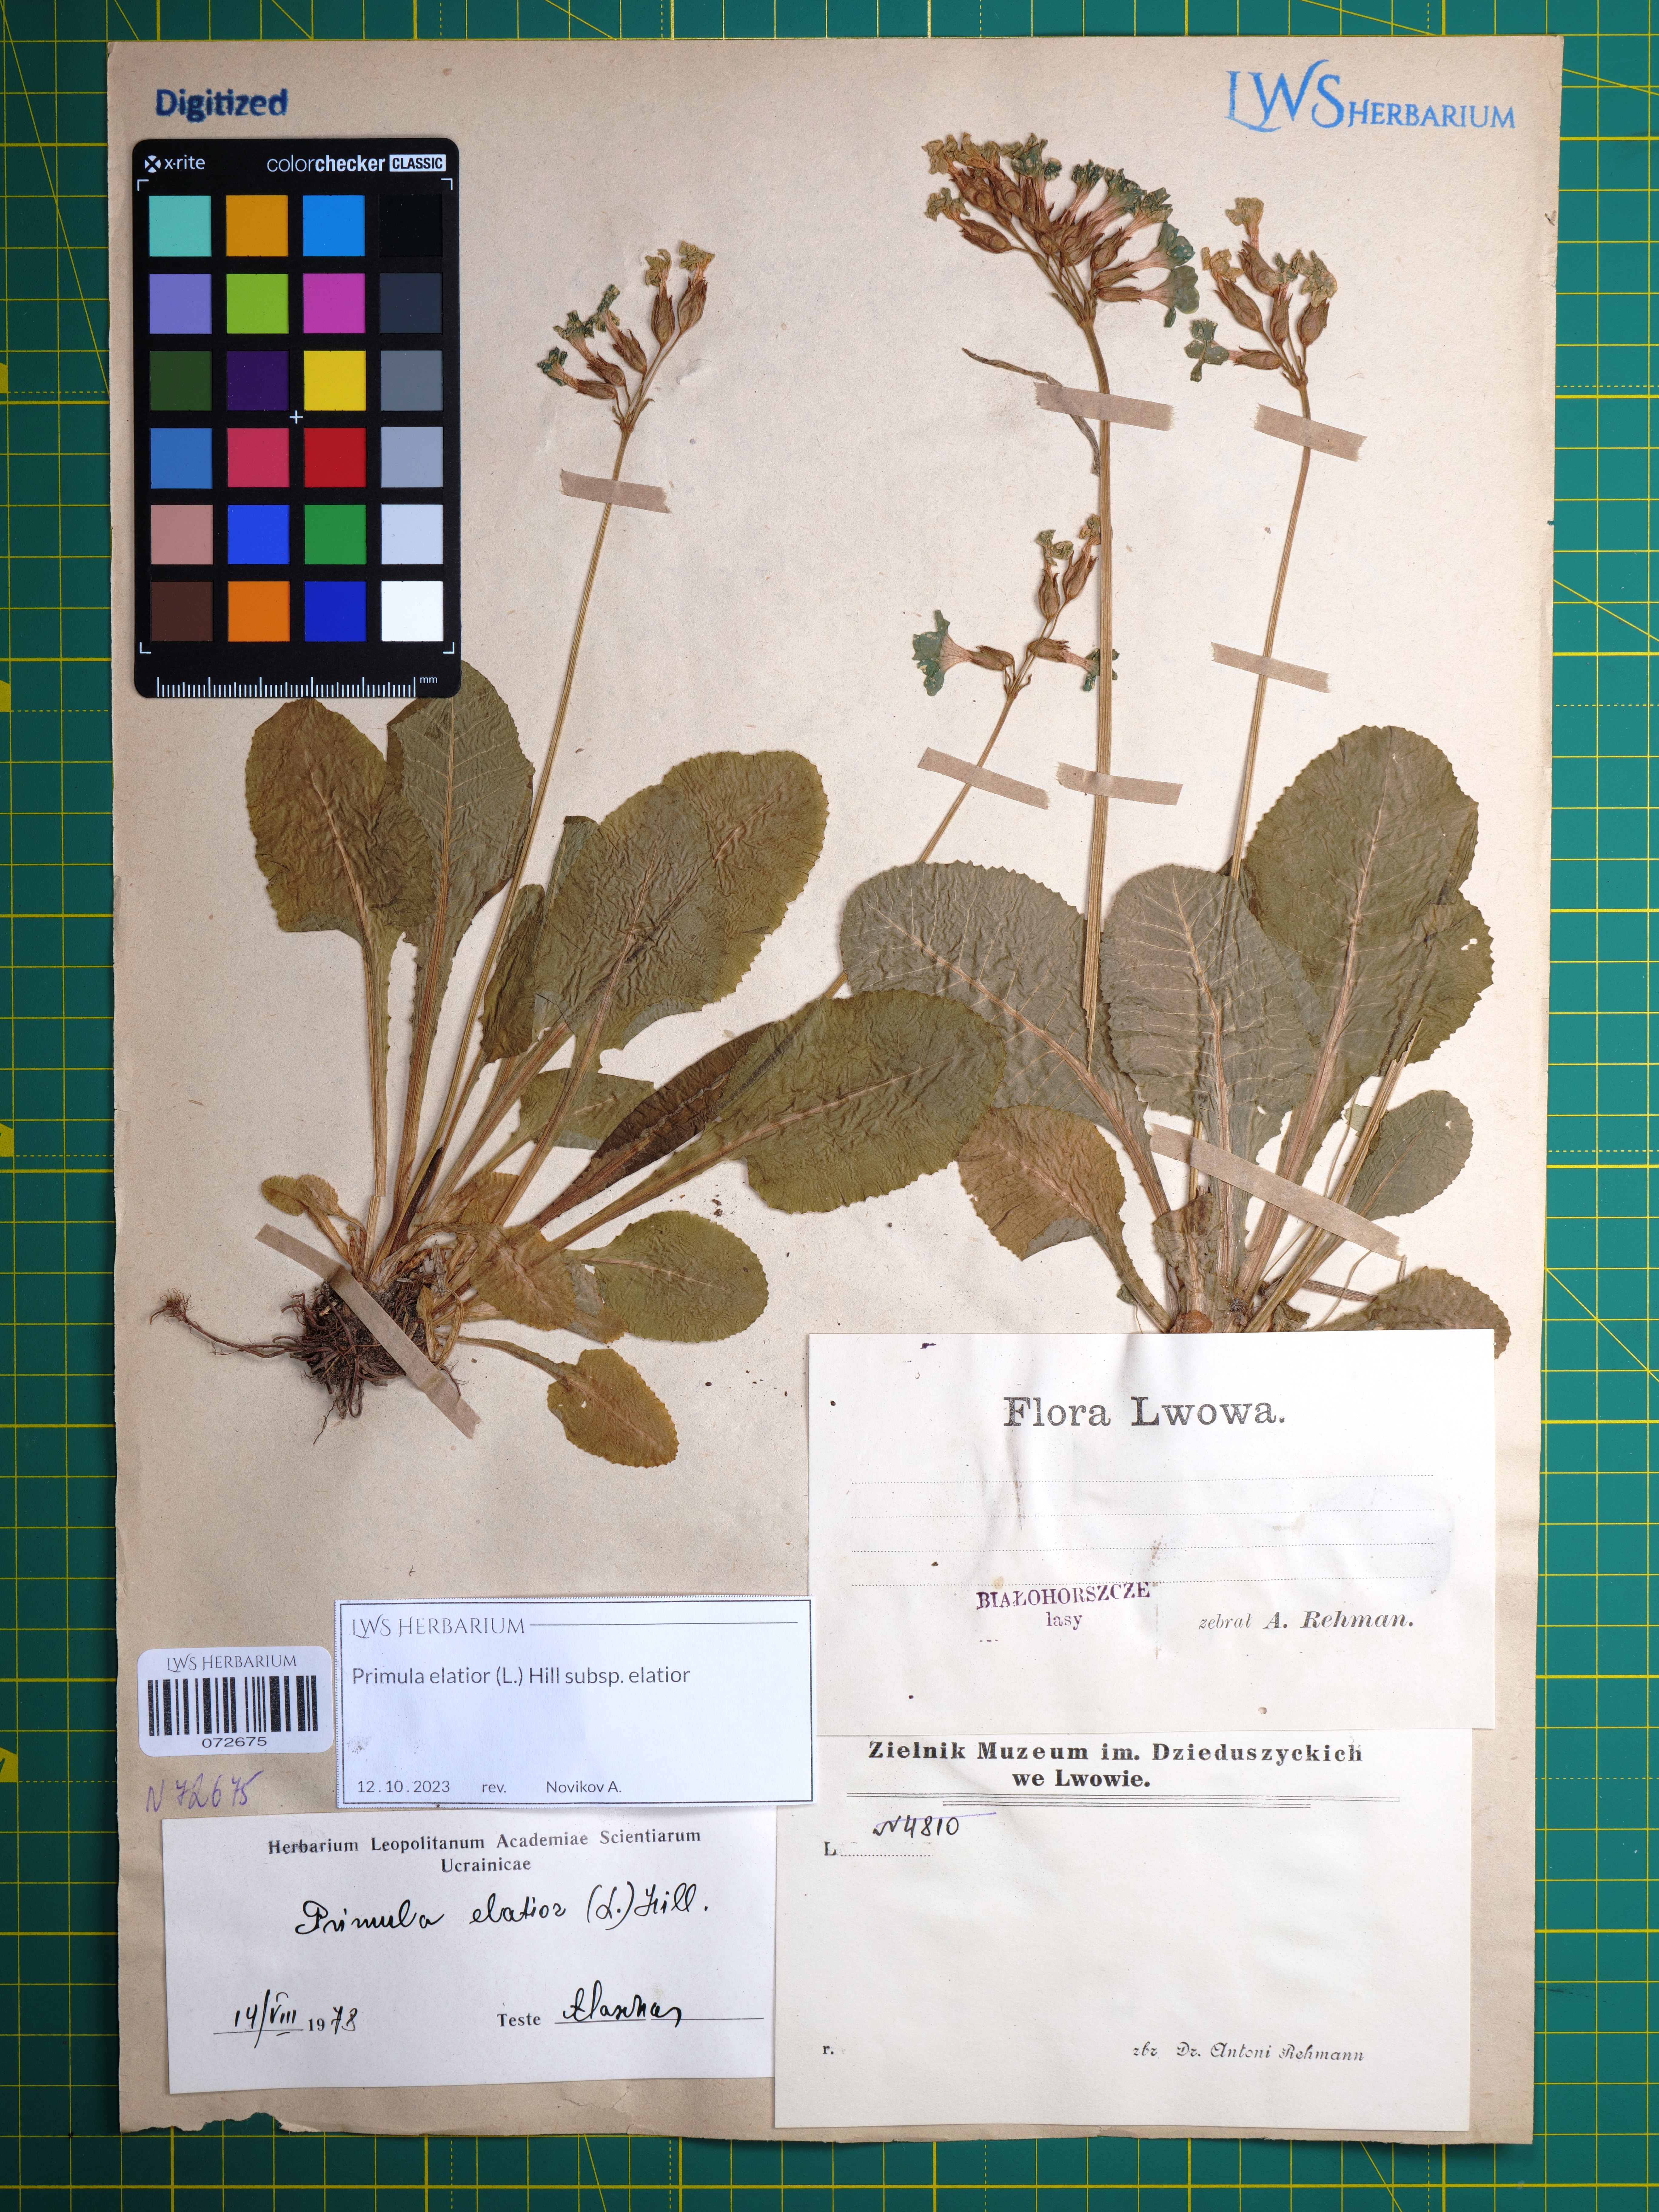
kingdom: Plantae
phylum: Tracheophyta
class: Magnoliopsida
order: Ericales
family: Primulaceae
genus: Primula
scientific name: Primula elatior
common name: Oxlip
